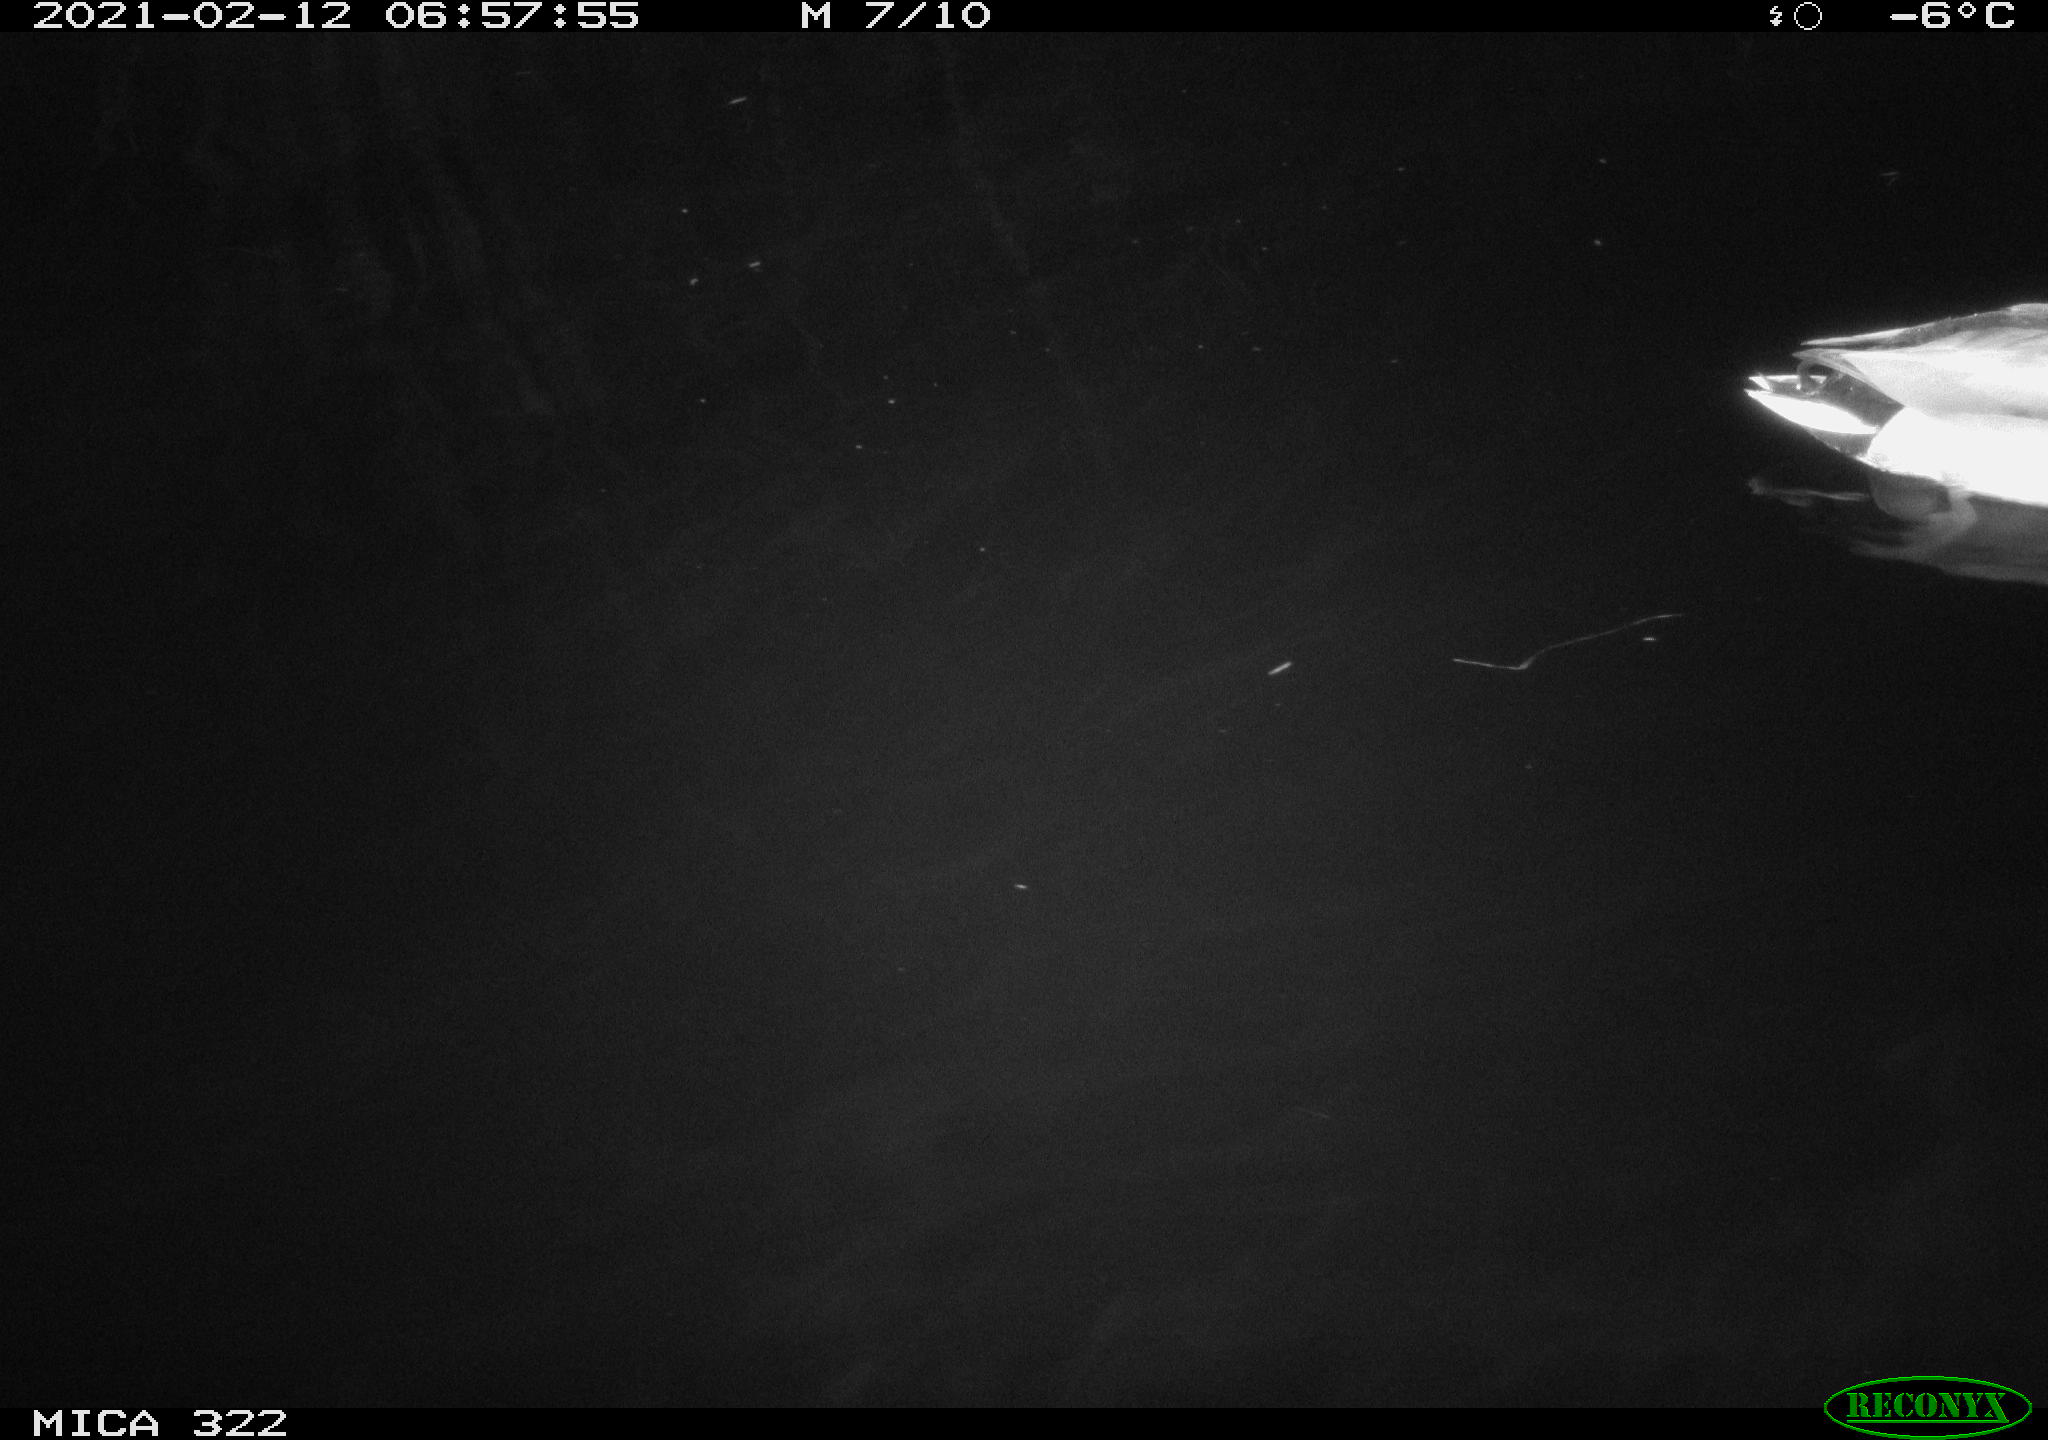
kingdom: Animalia
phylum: Chordata
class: Aves
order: Anseriformes
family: Anatidae
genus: Anas
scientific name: Anas platyrhynchos
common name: Mallard
